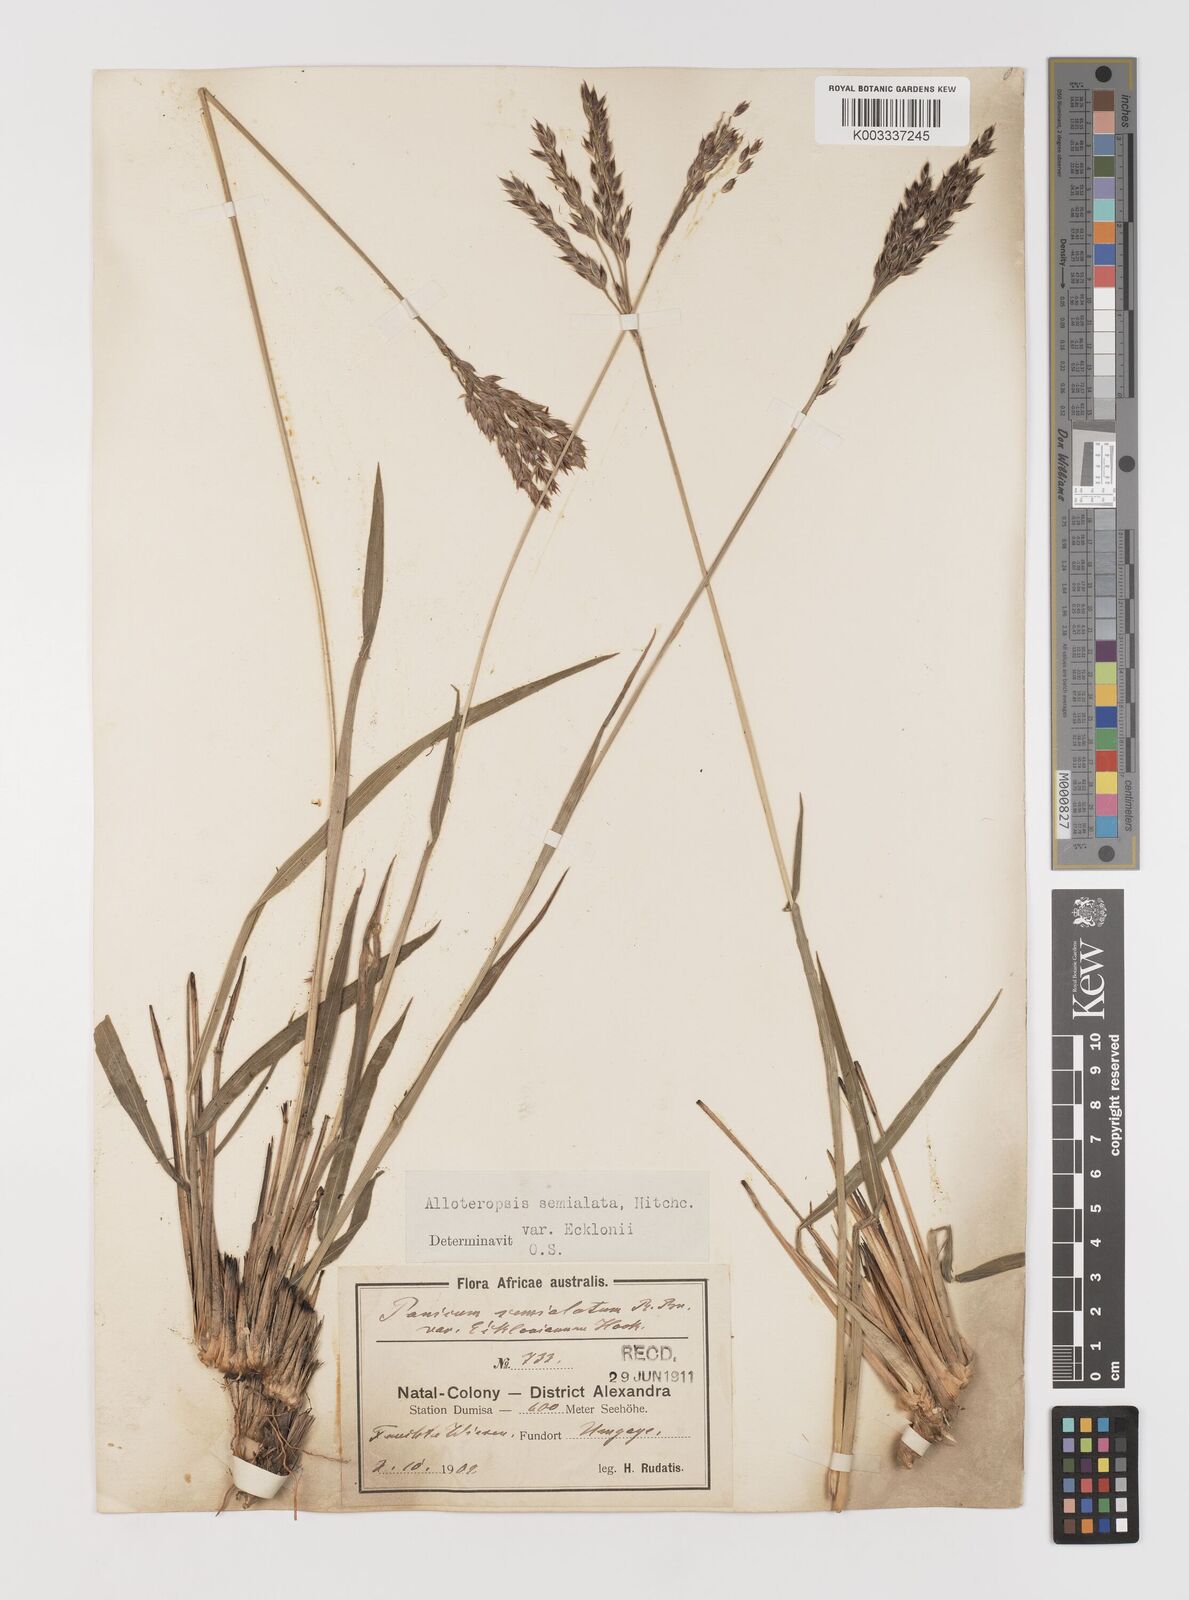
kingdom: Plantae
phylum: Tracheophyta
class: Liliopsida
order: Poales
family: Poaceae
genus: Alloteropsis
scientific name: Alloteropsis semialata
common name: Cockatoo grass
